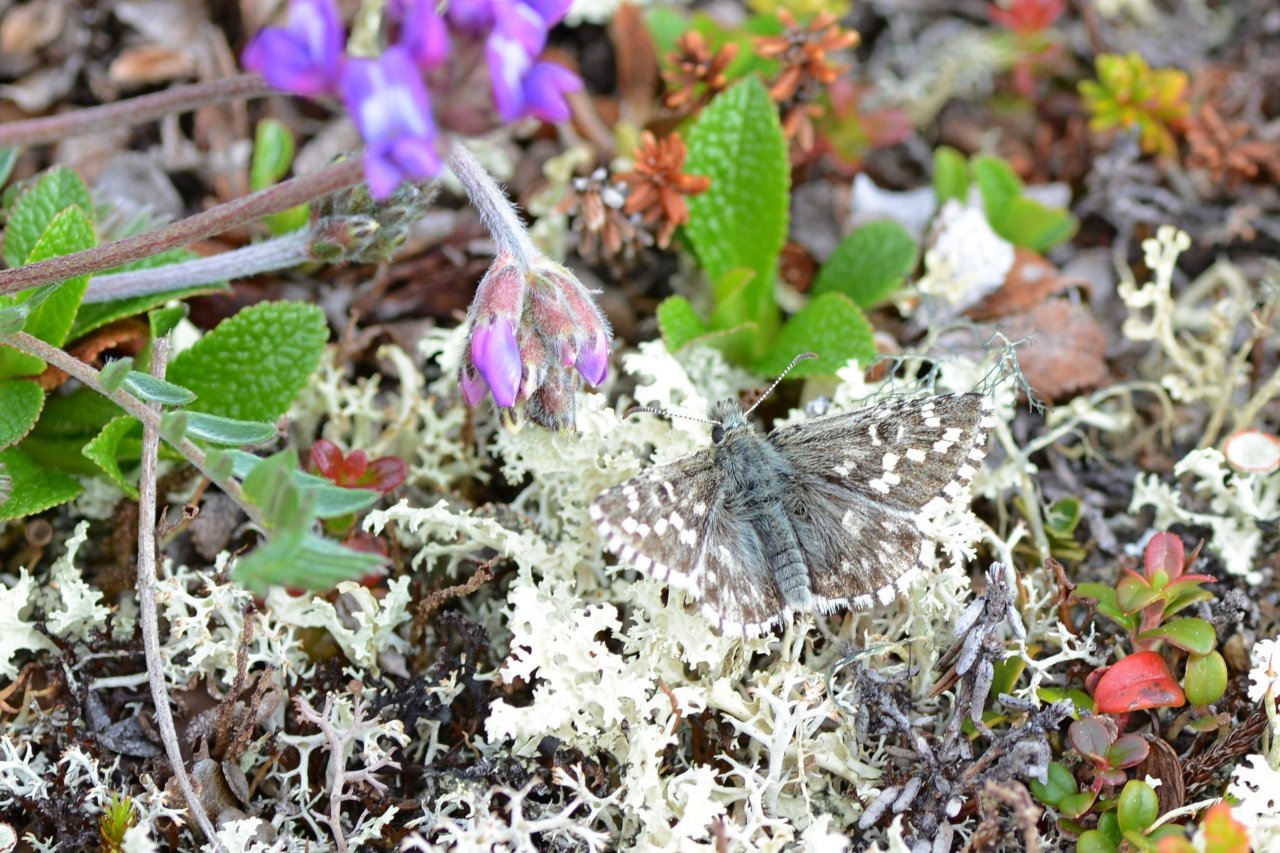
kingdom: Animalia
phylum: Arthropoda
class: Insecta
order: Lepidoptera
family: Hesperiidae
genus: Pyrgus
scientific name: Pyrgus centaureae
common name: Grizzled Skipper
